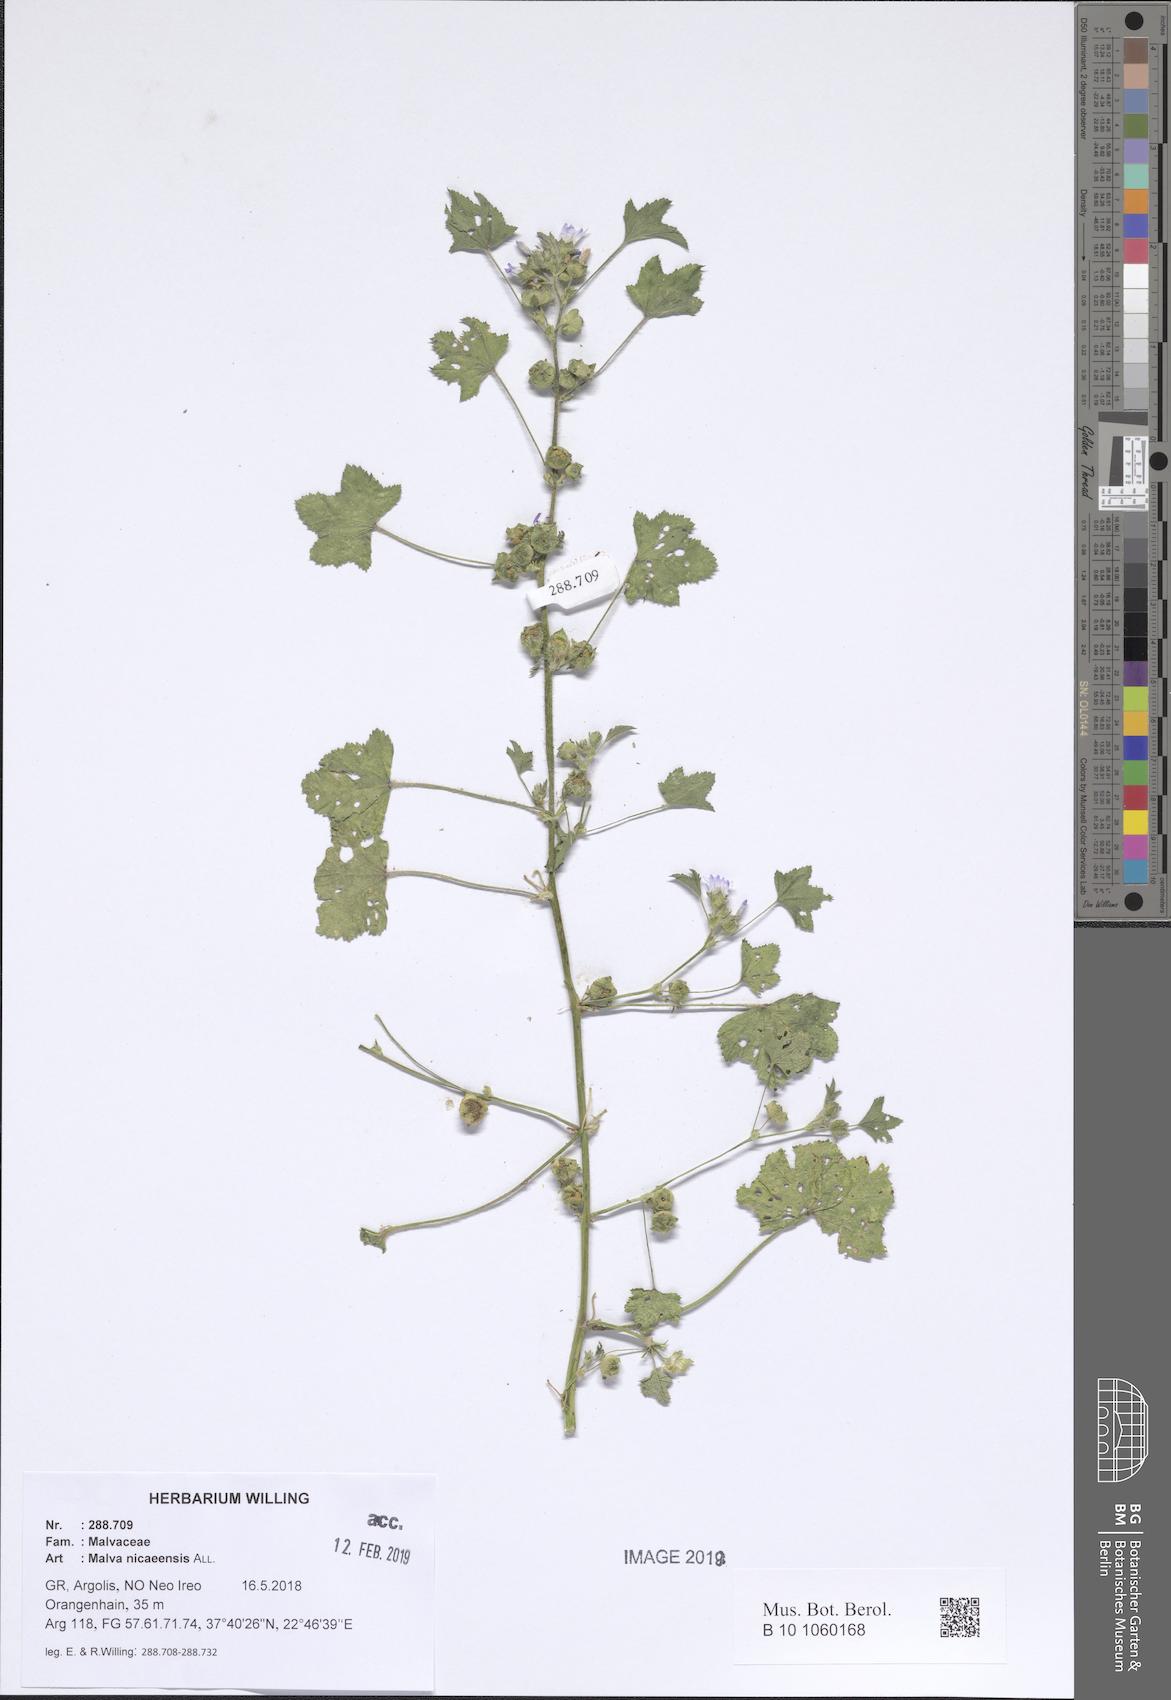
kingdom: Plantae
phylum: Tracheophyta
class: Magnoliopsida
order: Malvales
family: Malvaceae
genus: Malva
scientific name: Malva nicaeensis
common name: French mallow
